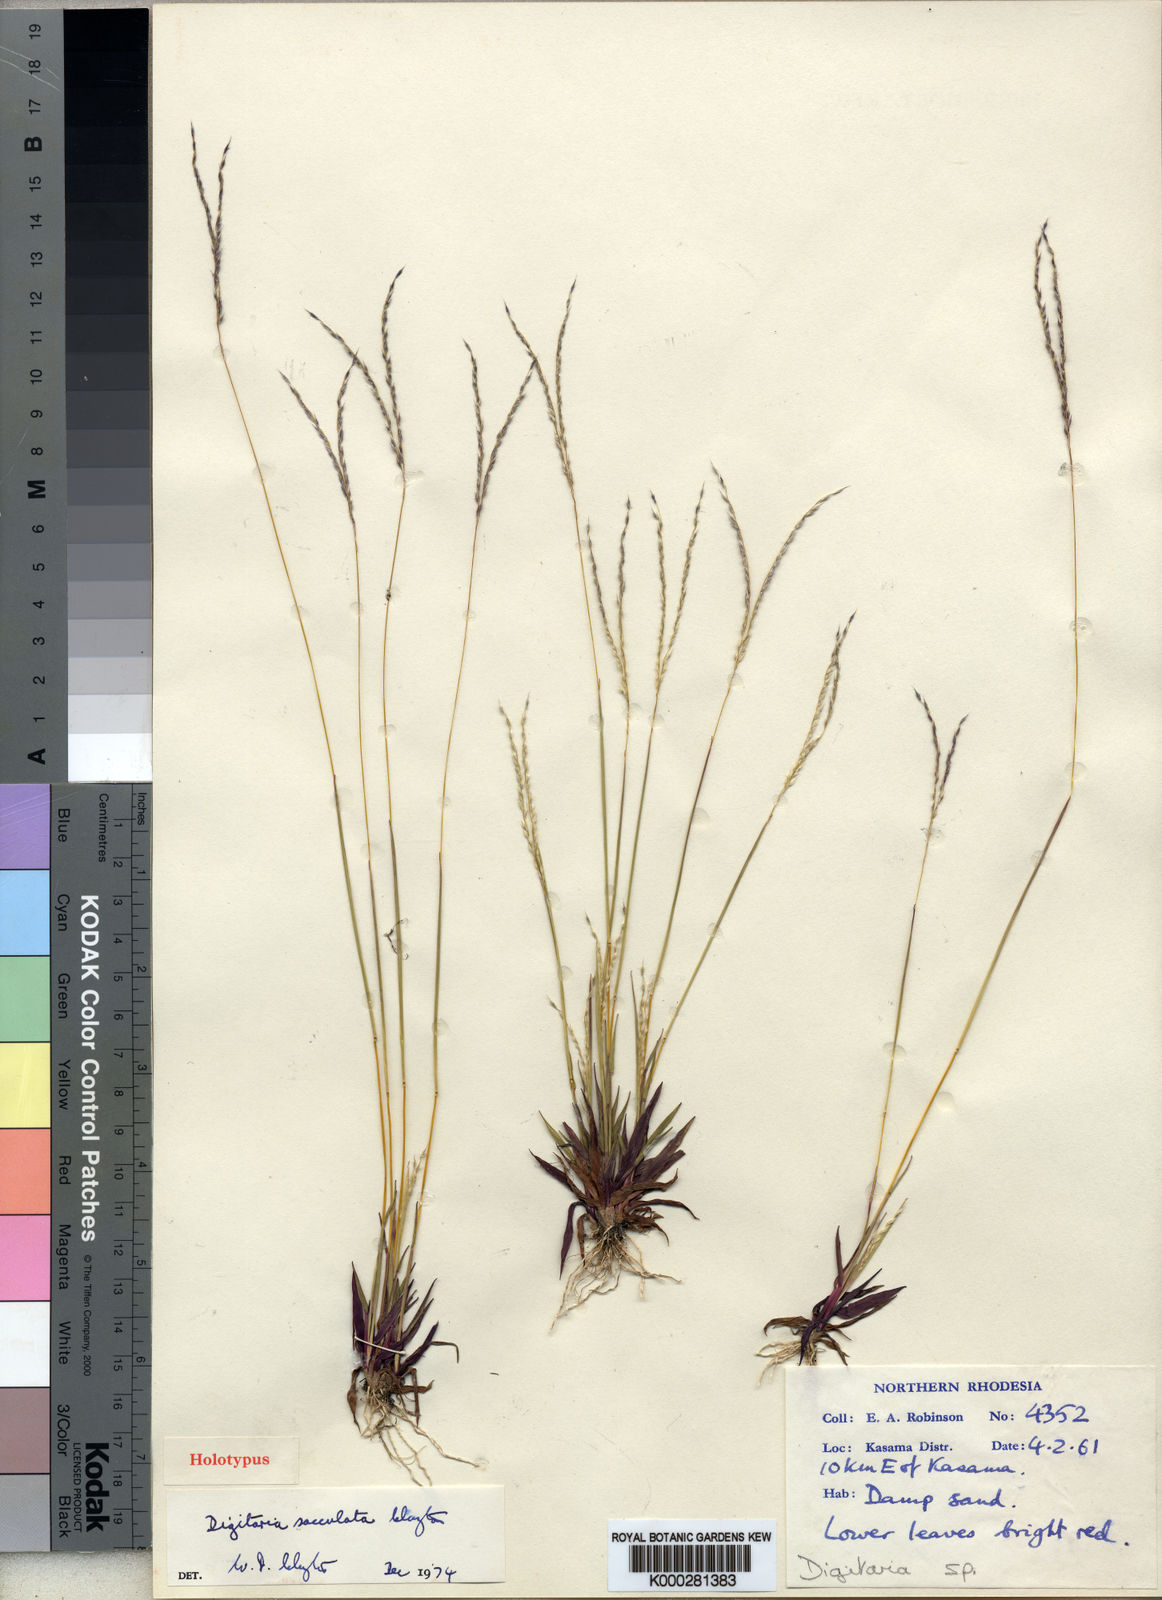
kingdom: Plantae
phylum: Tracheophyta
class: Liliopsida
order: Poales
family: Poaceae
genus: Digitaria
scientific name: Digitaria sacculata
